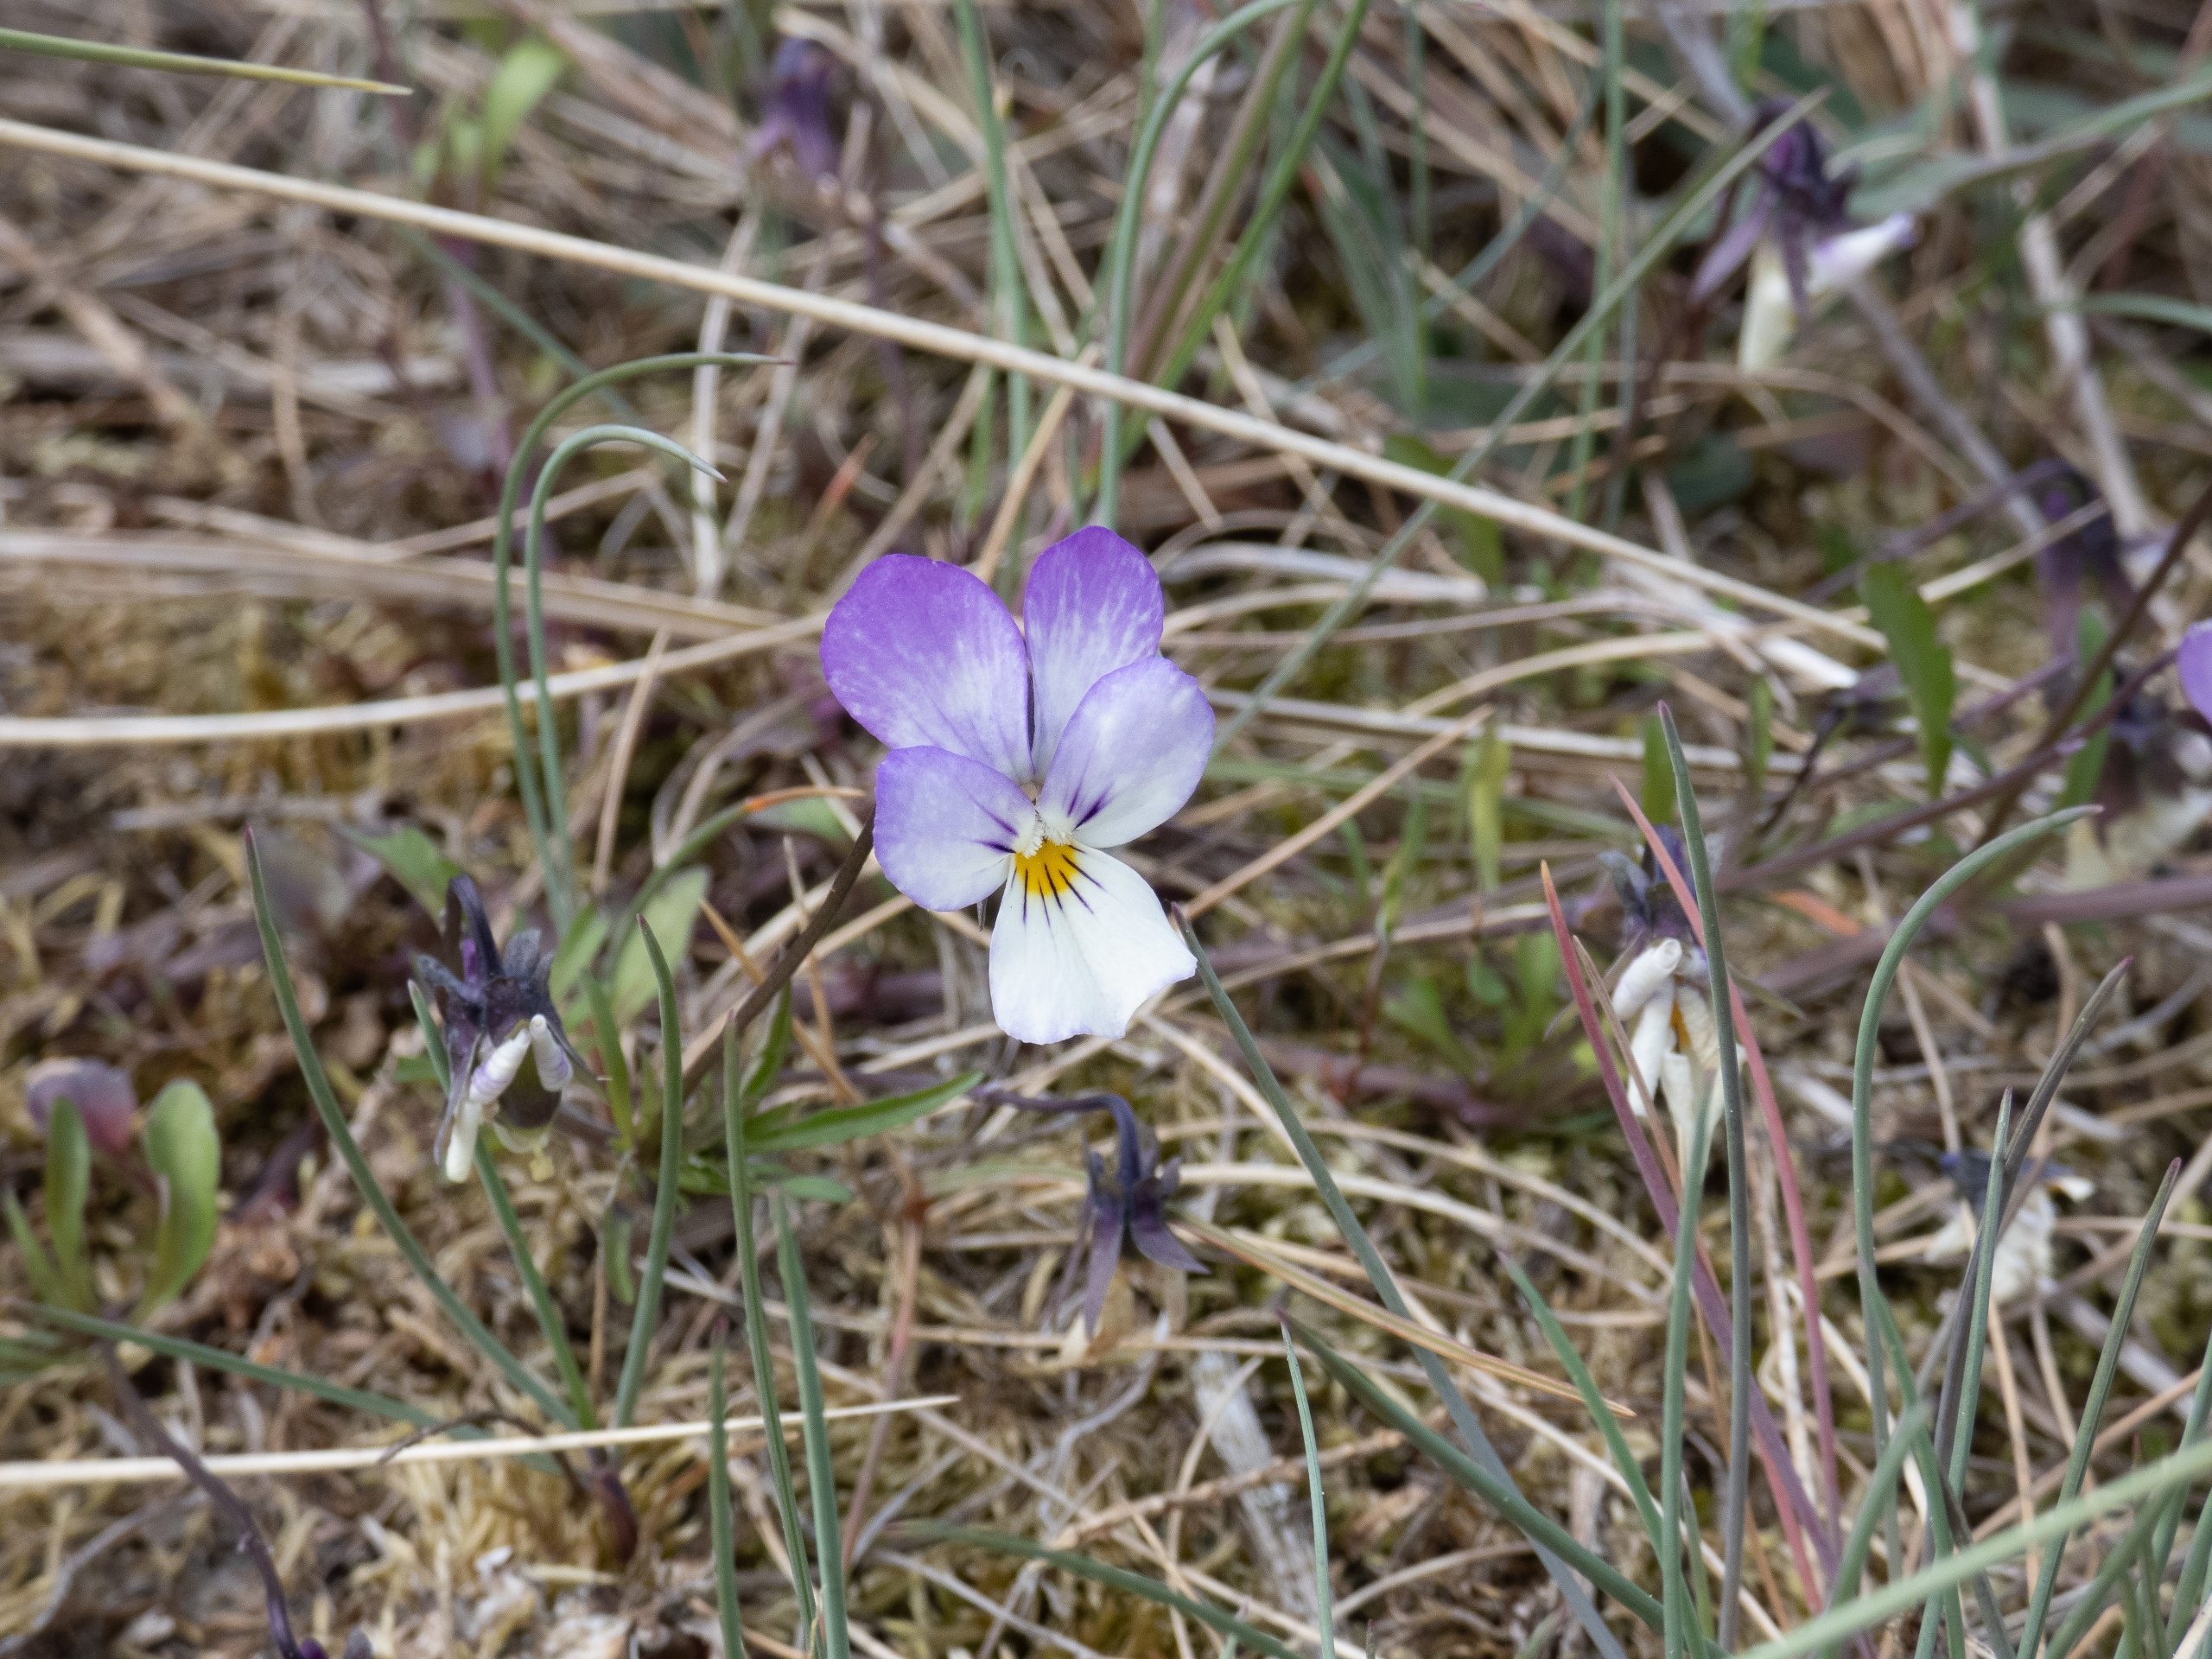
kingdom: Plantae
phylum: Tracheophyta
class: Magnoliopsida
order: Malpighiales
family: Violaceae
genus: Viola
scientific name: Viola tricolor
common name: Stedmoderblomst
